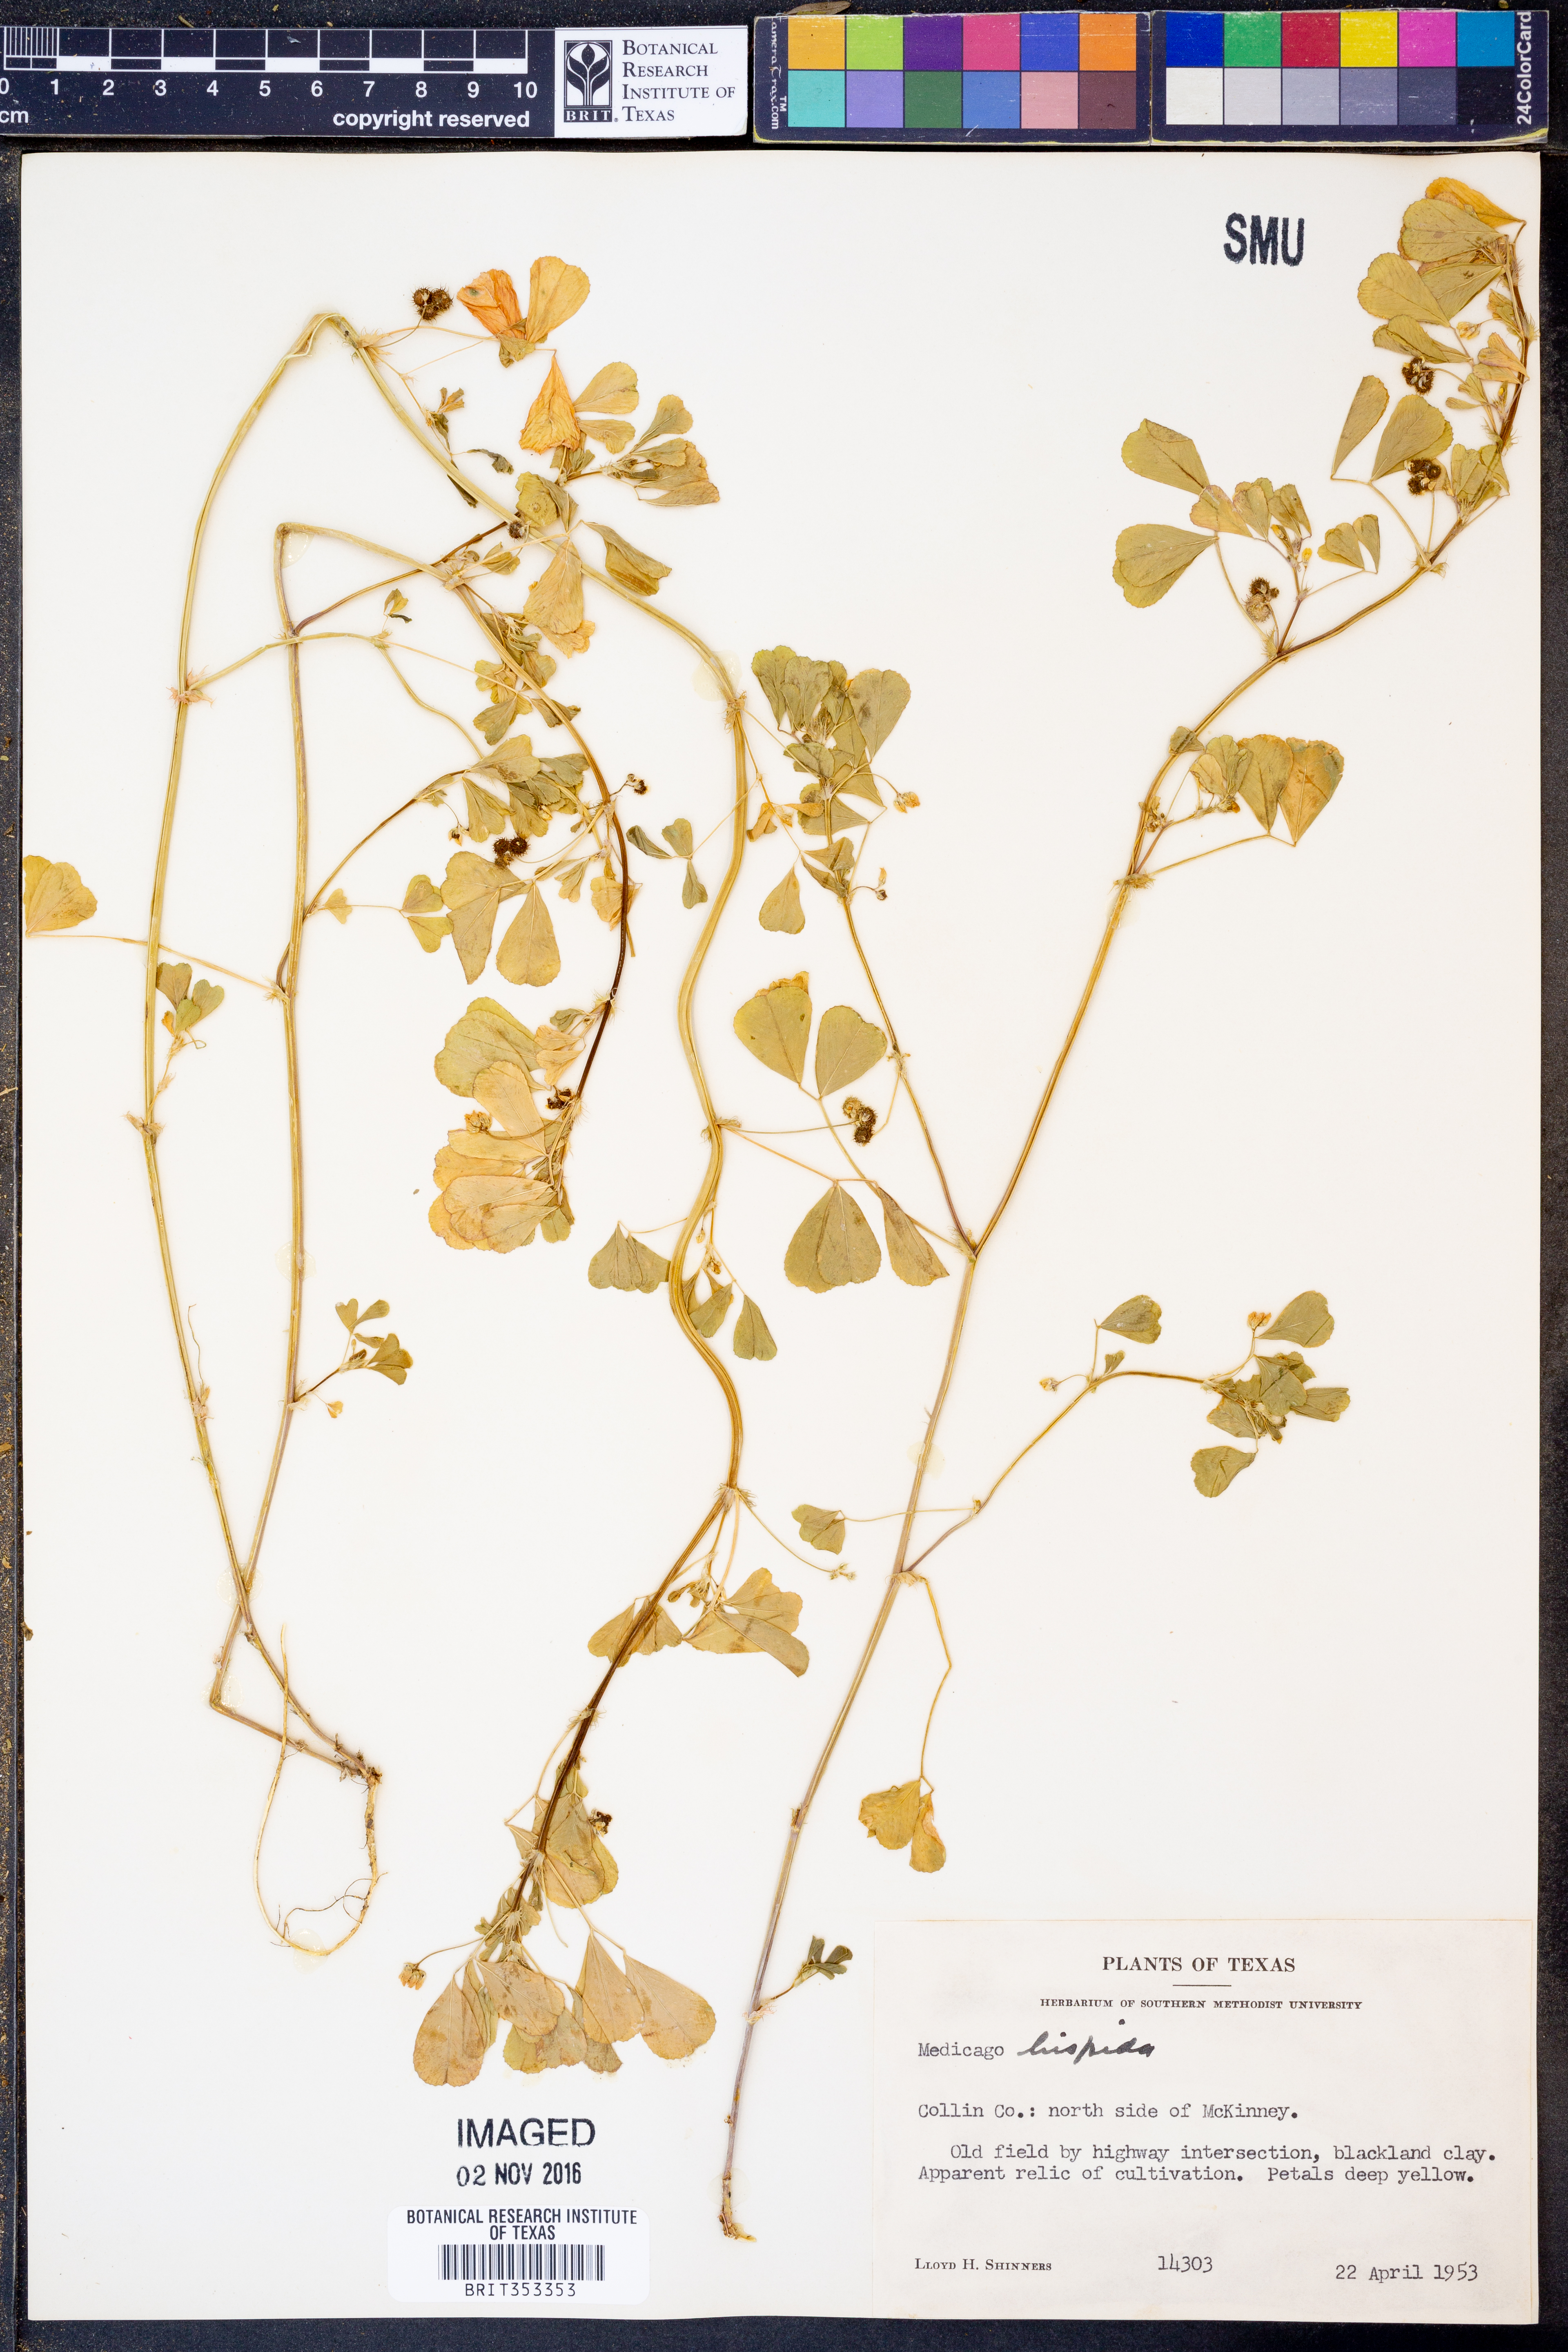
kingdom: Plantae
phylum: Tracheophyta
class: Magnoliopsida
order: Fabales
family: Fabaceae
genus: Medicago
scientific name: Medicago polymorpha
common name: Burclover
